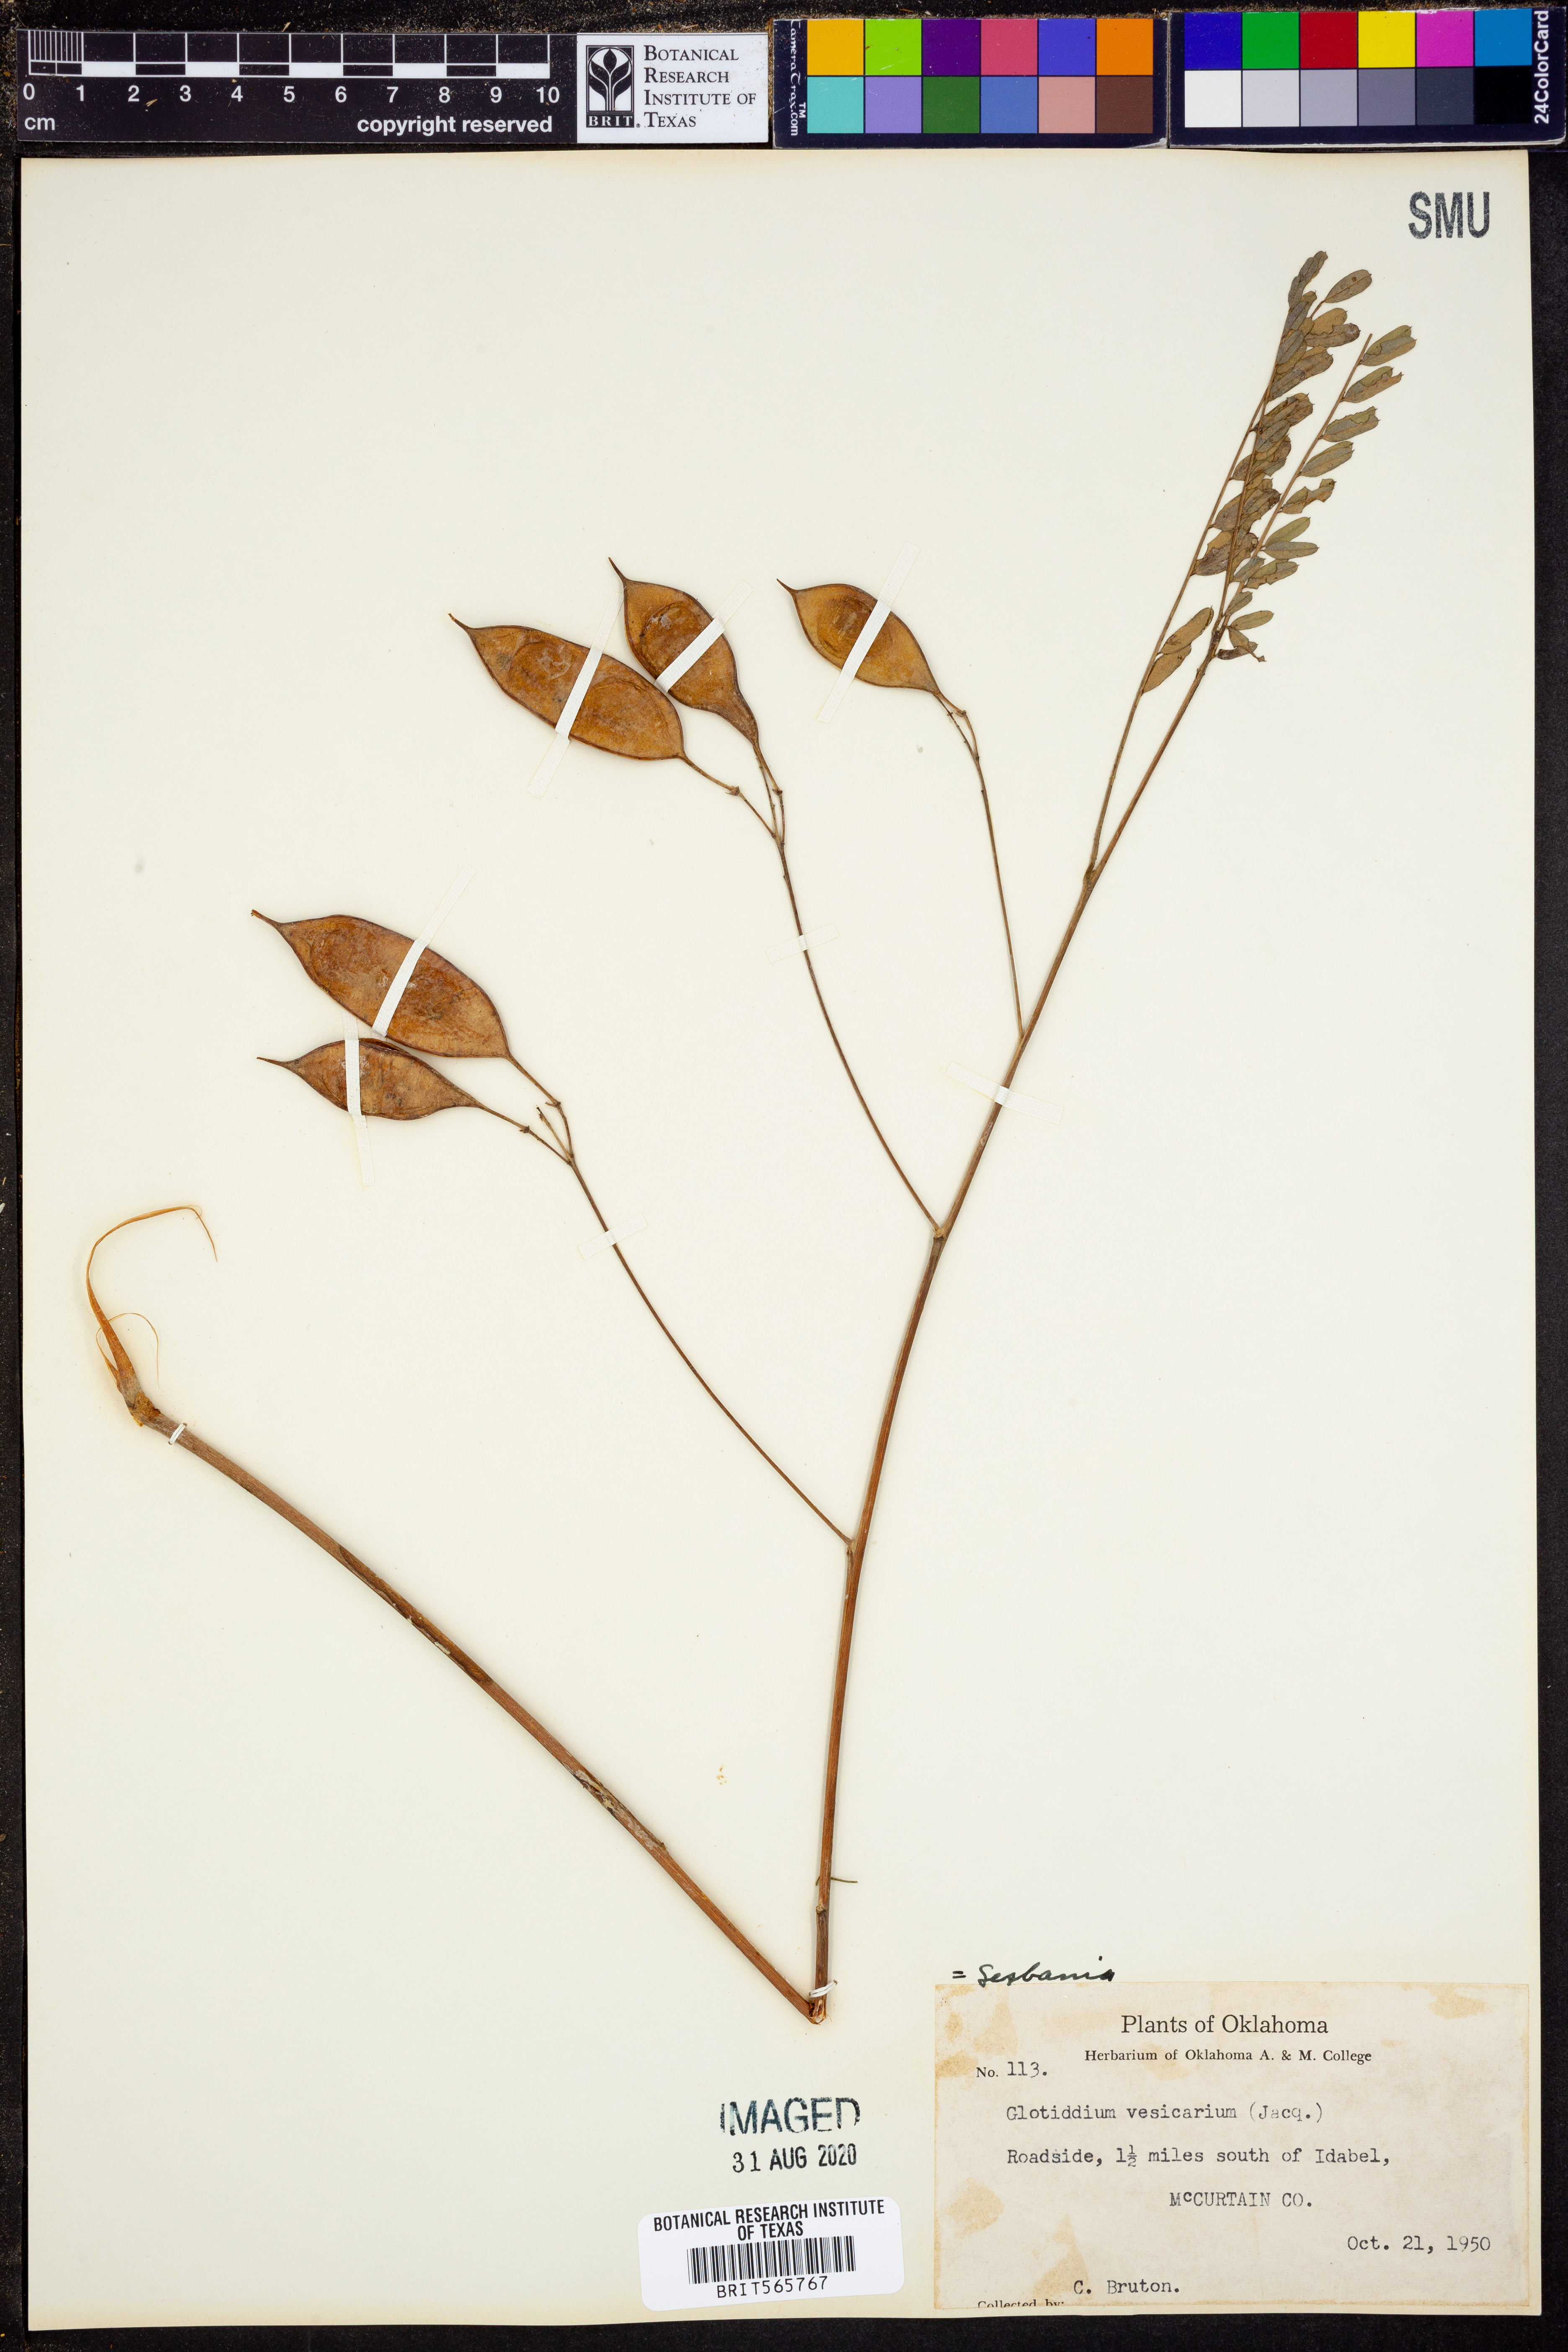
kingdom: Plantae
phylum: Tracheophyta
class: Magnoliopsida
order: Fabales
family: Fabaceae
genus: Sesbania
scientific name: Sesbania vesicaria
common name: Bagpod
